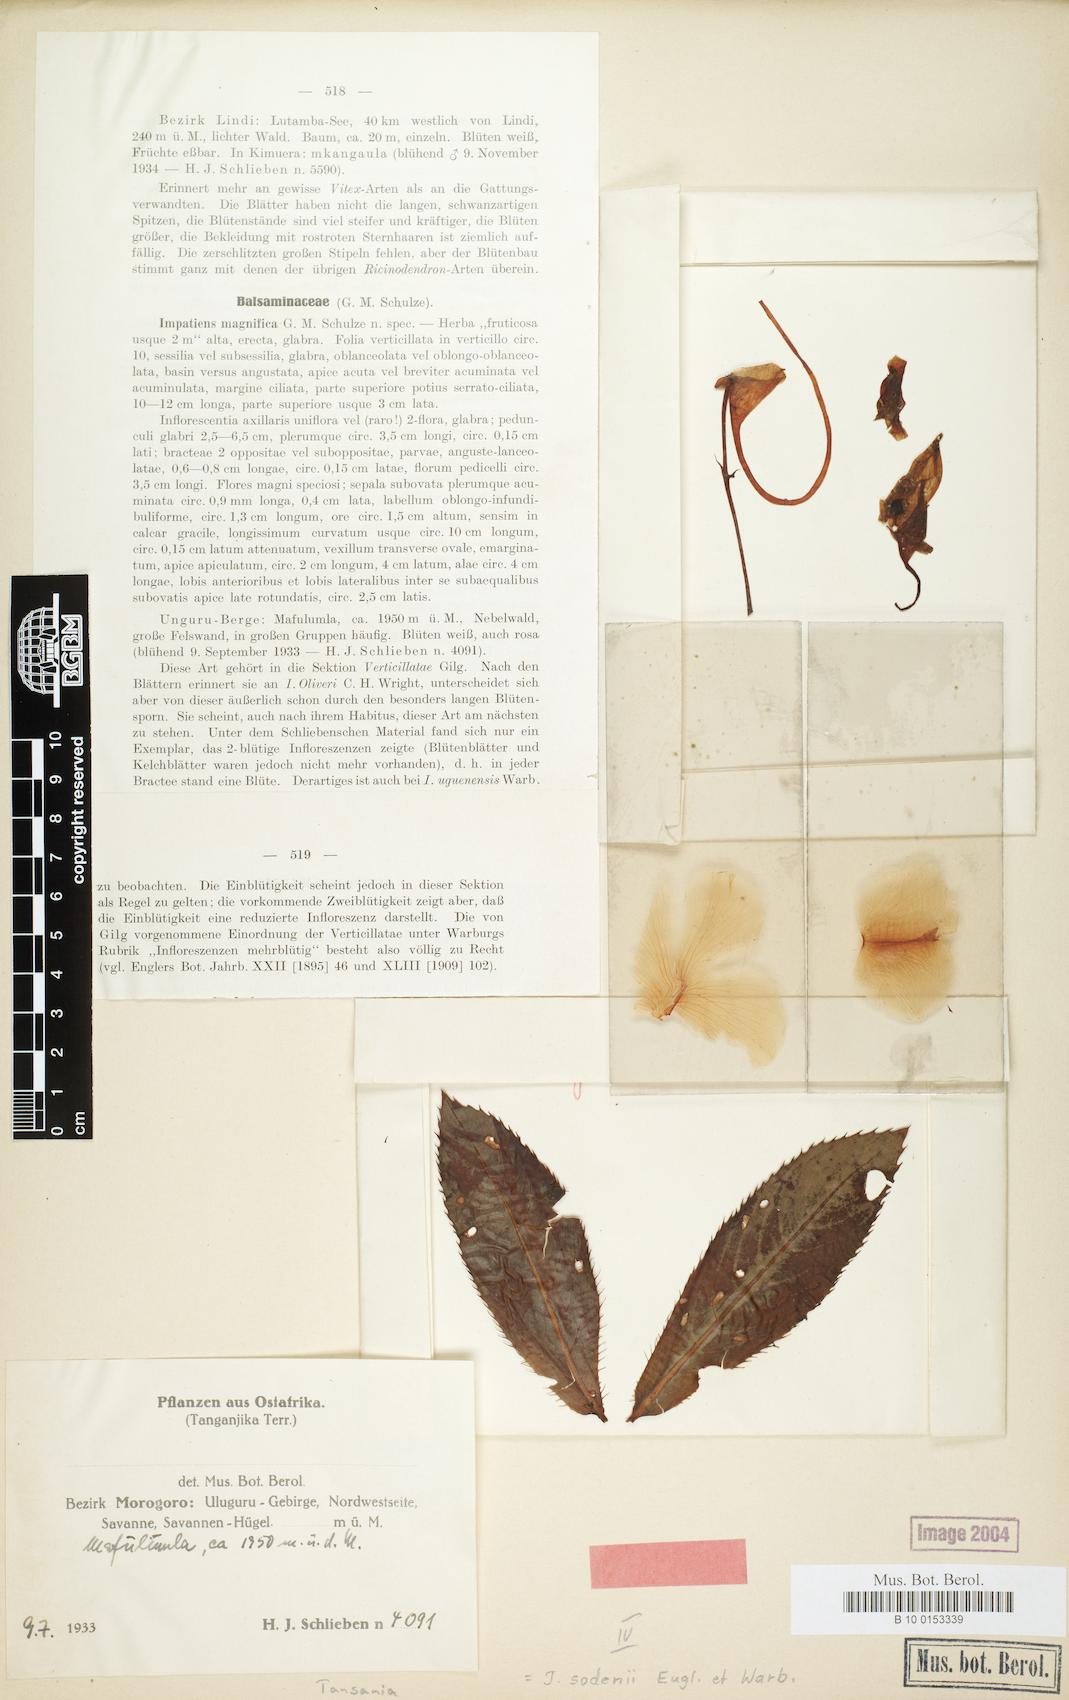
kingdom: Plantae
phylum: Tracheophyta
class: Magnoliopsida
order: Ericales
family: Balsaminaceae
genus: Impatiens
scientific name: Impatiens sodenii
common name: Oliver's touch-me-not
